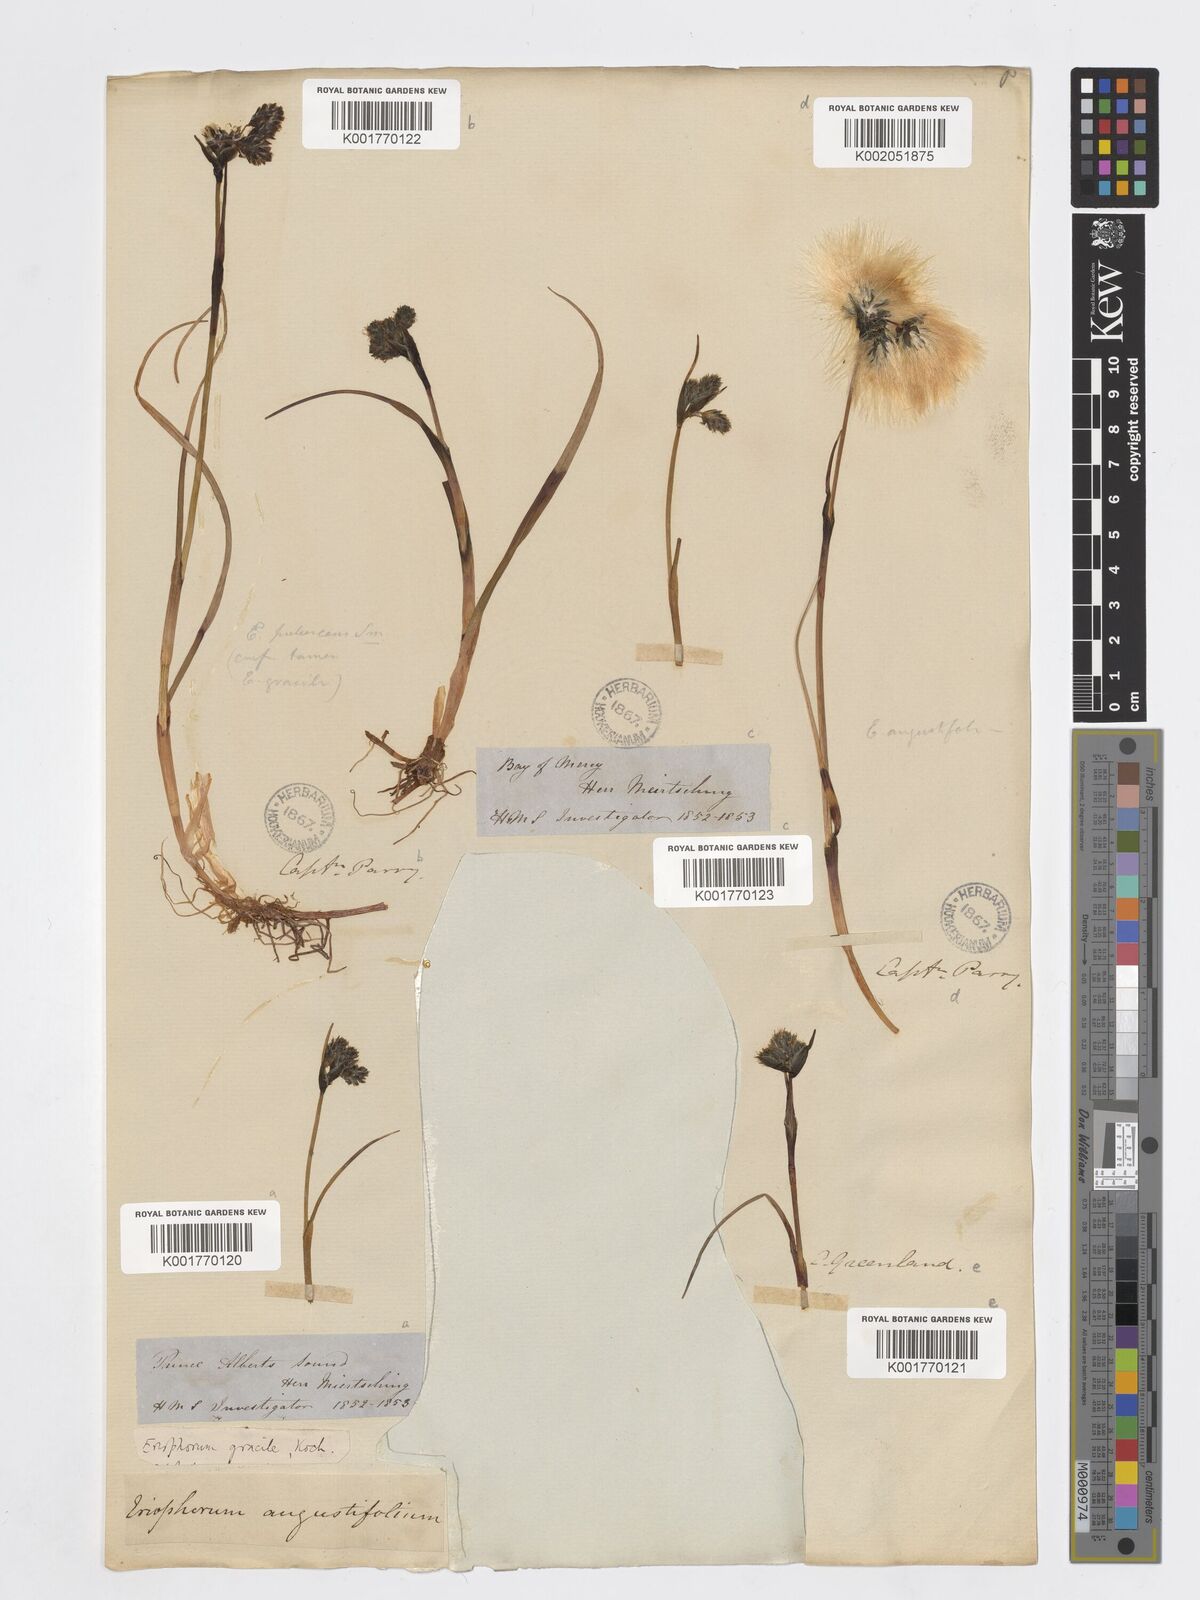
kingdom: Plantae
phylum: Tracheophyta
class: Liliopsida
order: Poales
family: Cyperaceae
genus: Eriophorum
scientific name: Eriophorum latifolium
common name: Broad-leaved cottongrass
